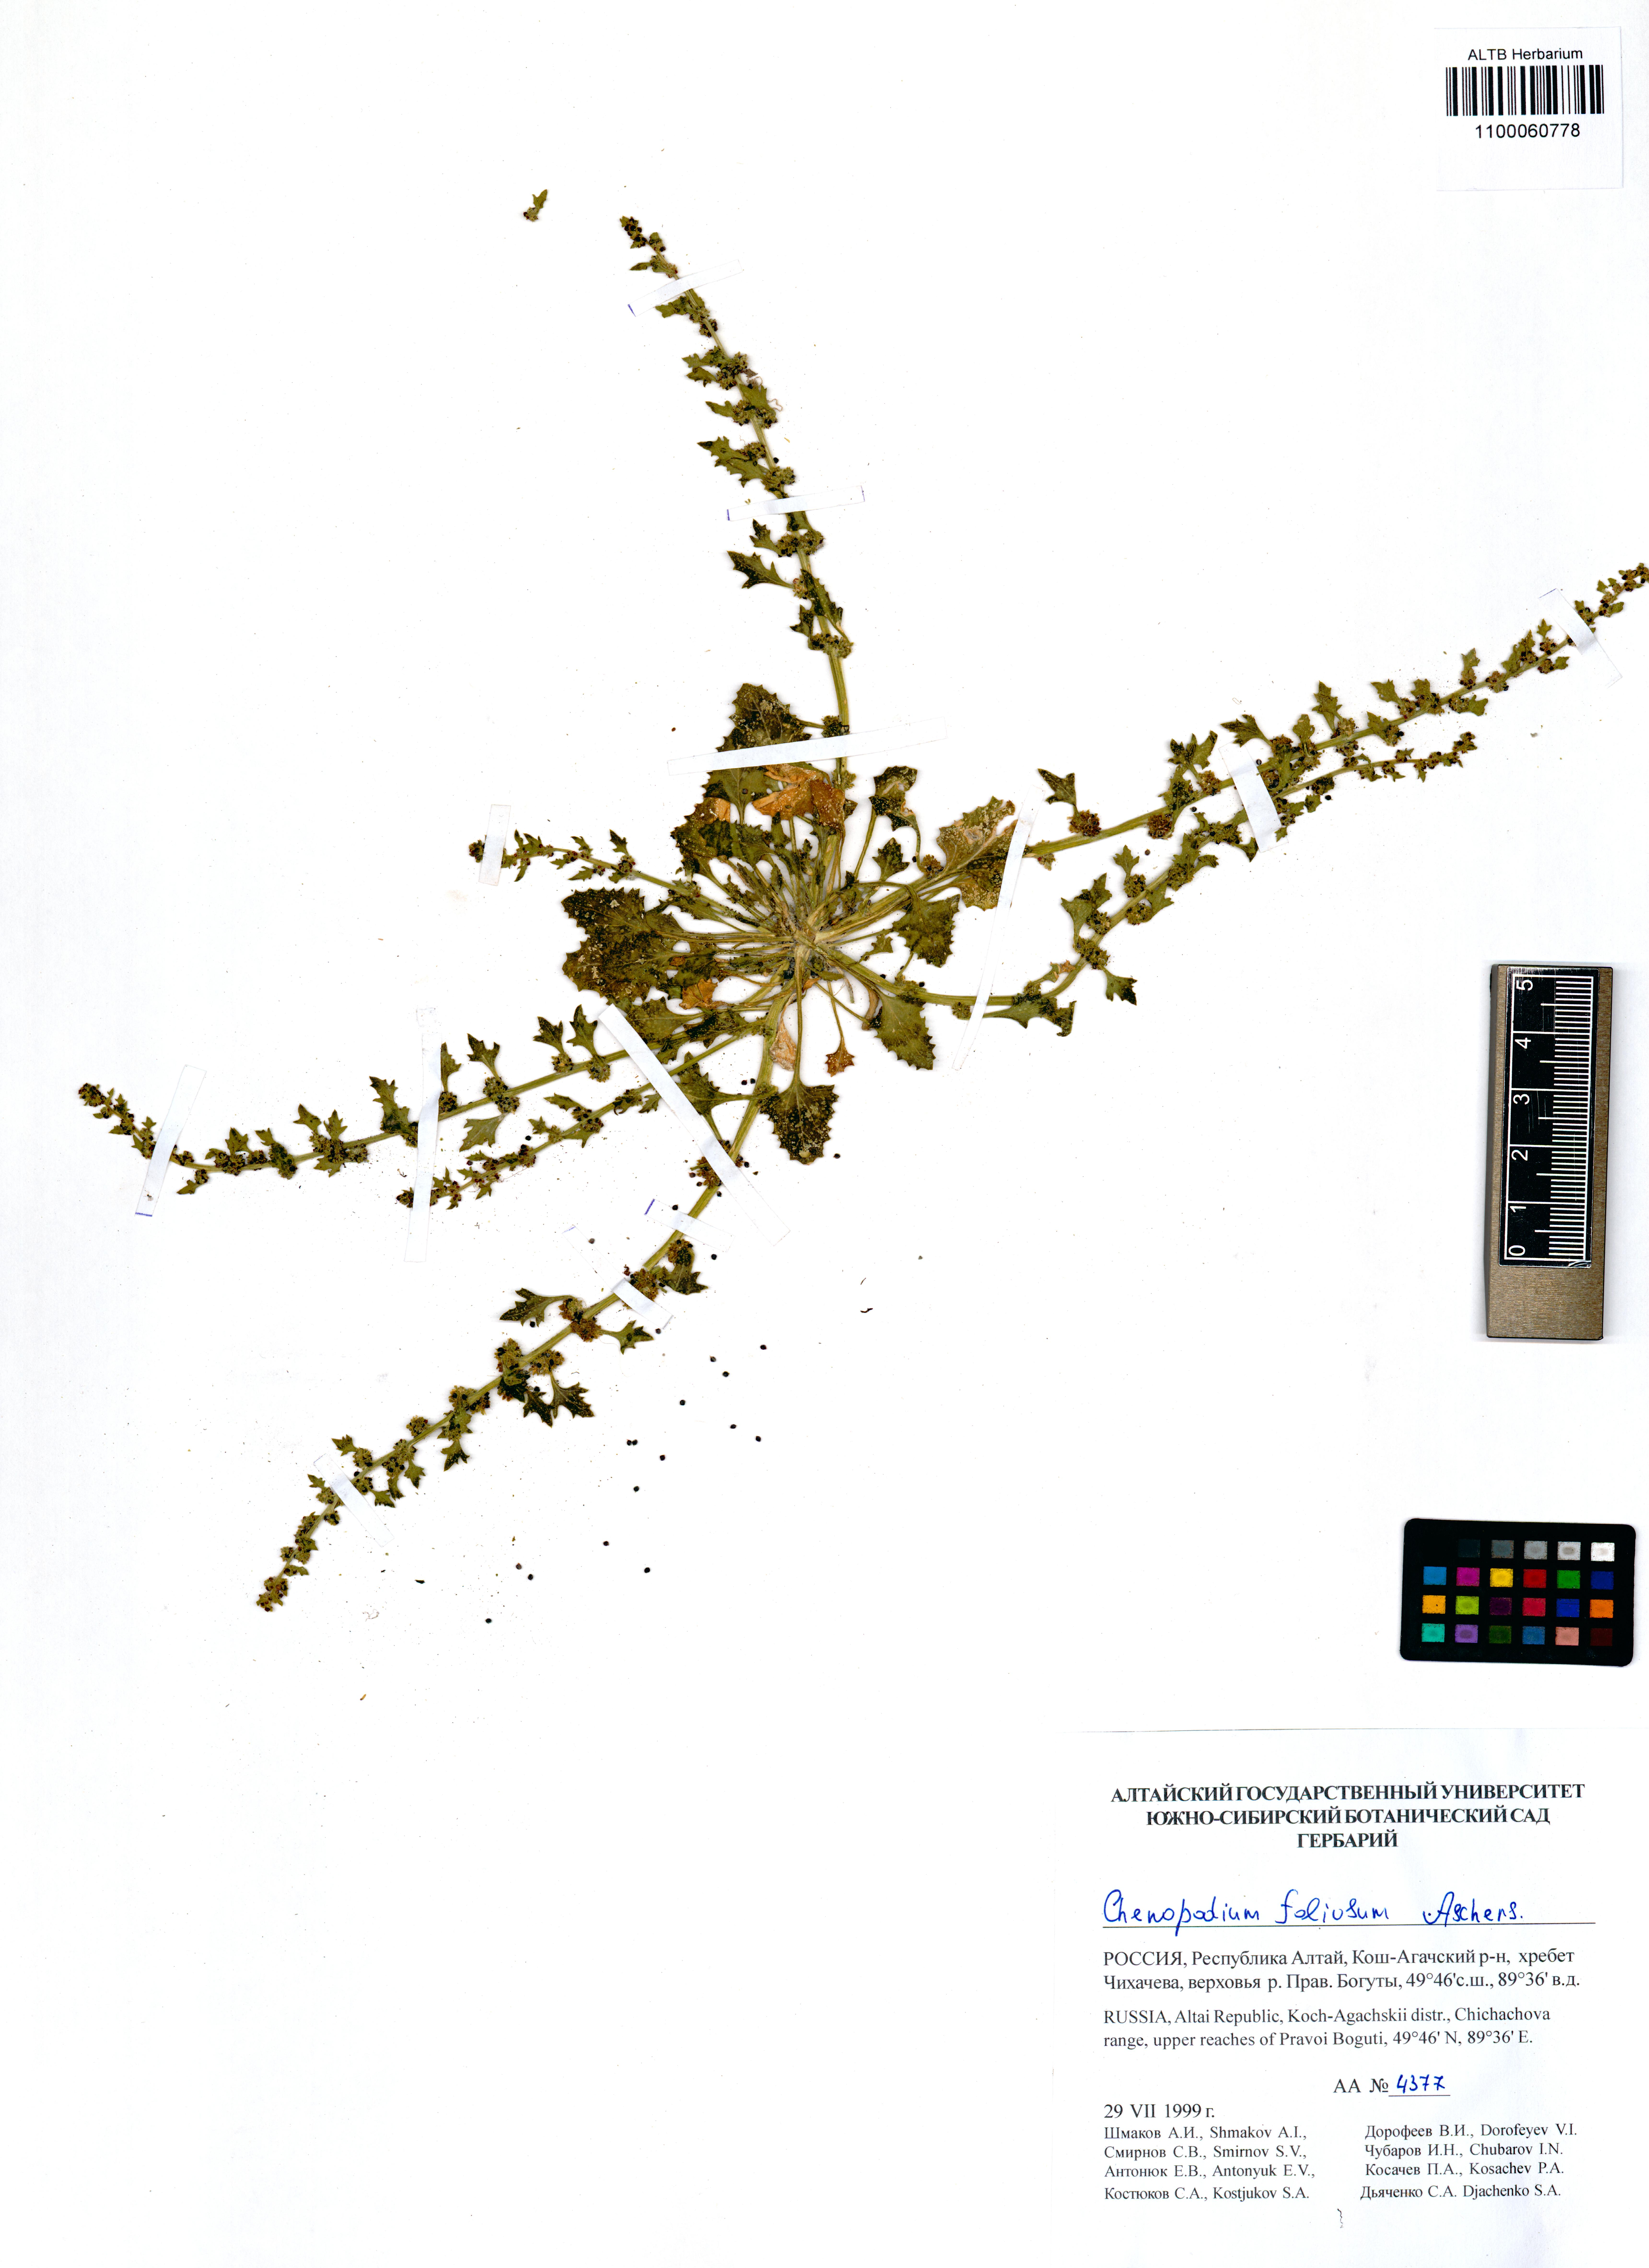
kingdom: Plantae
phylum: Tracheophyta
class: Magnoliopsida
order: Caryophyllales
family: Amaranthaceae
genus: Blitum
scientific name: Blitum virgatum
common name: Strawberry goosefoot
